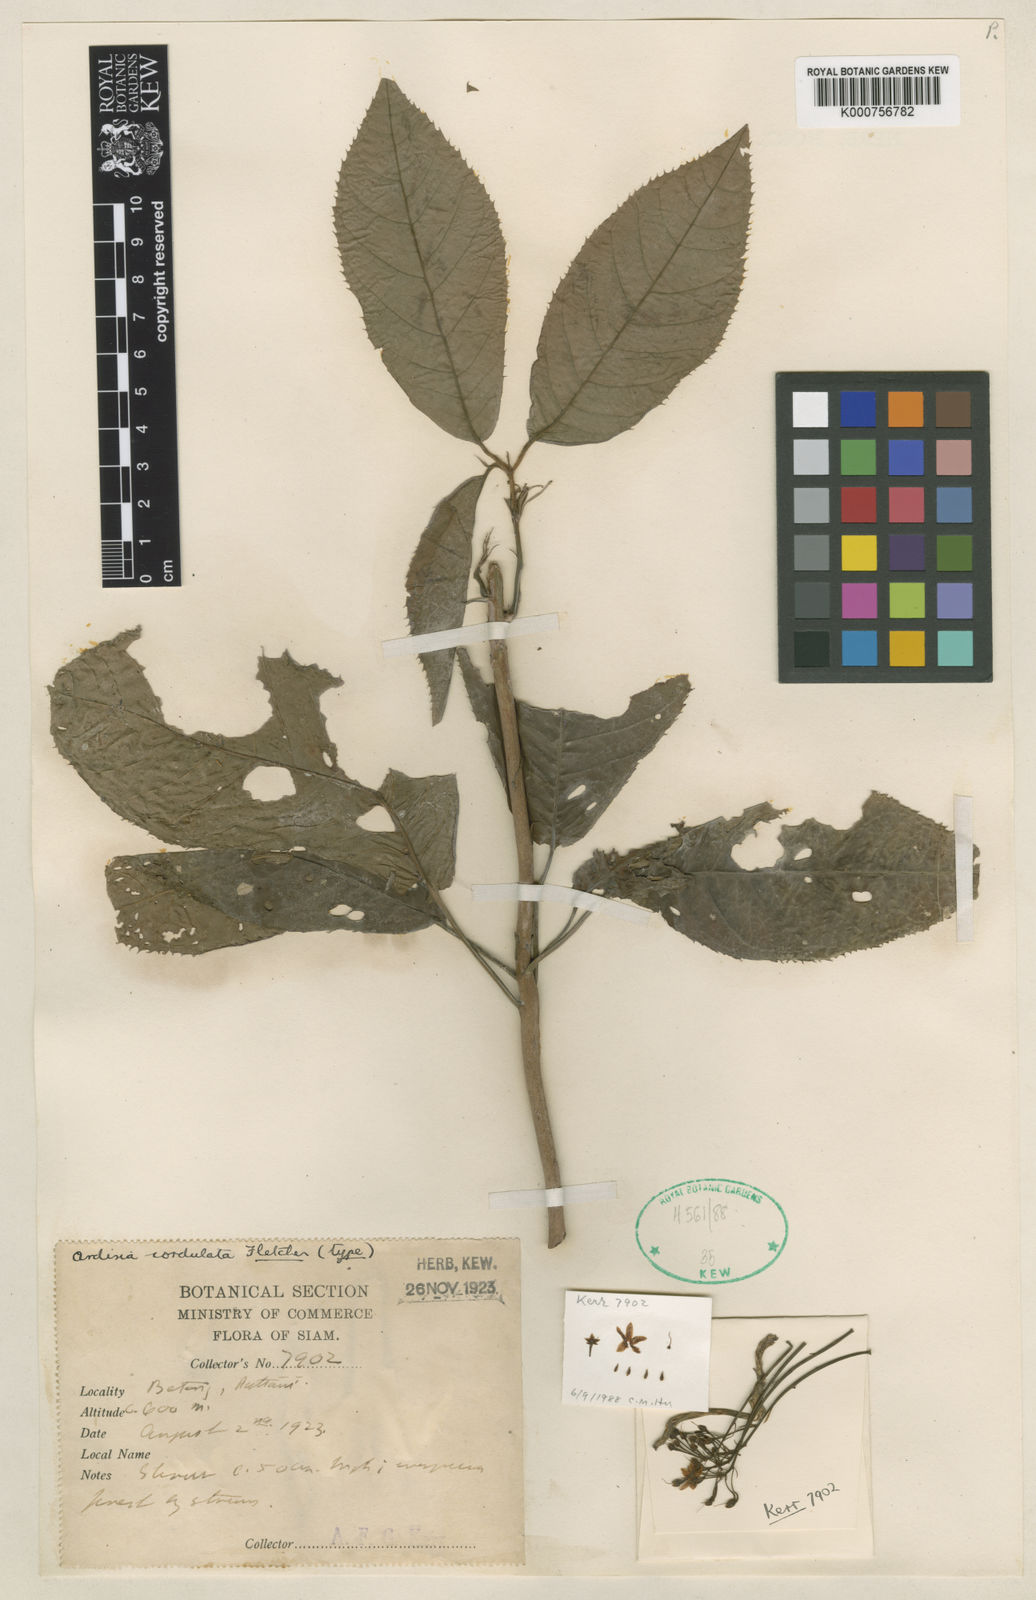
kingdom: Plantae
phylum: Tracheophyta
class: Magnoliopsida
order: Ericales
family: Primulaceae
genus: Ardisia
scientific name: Ardisia demissa
